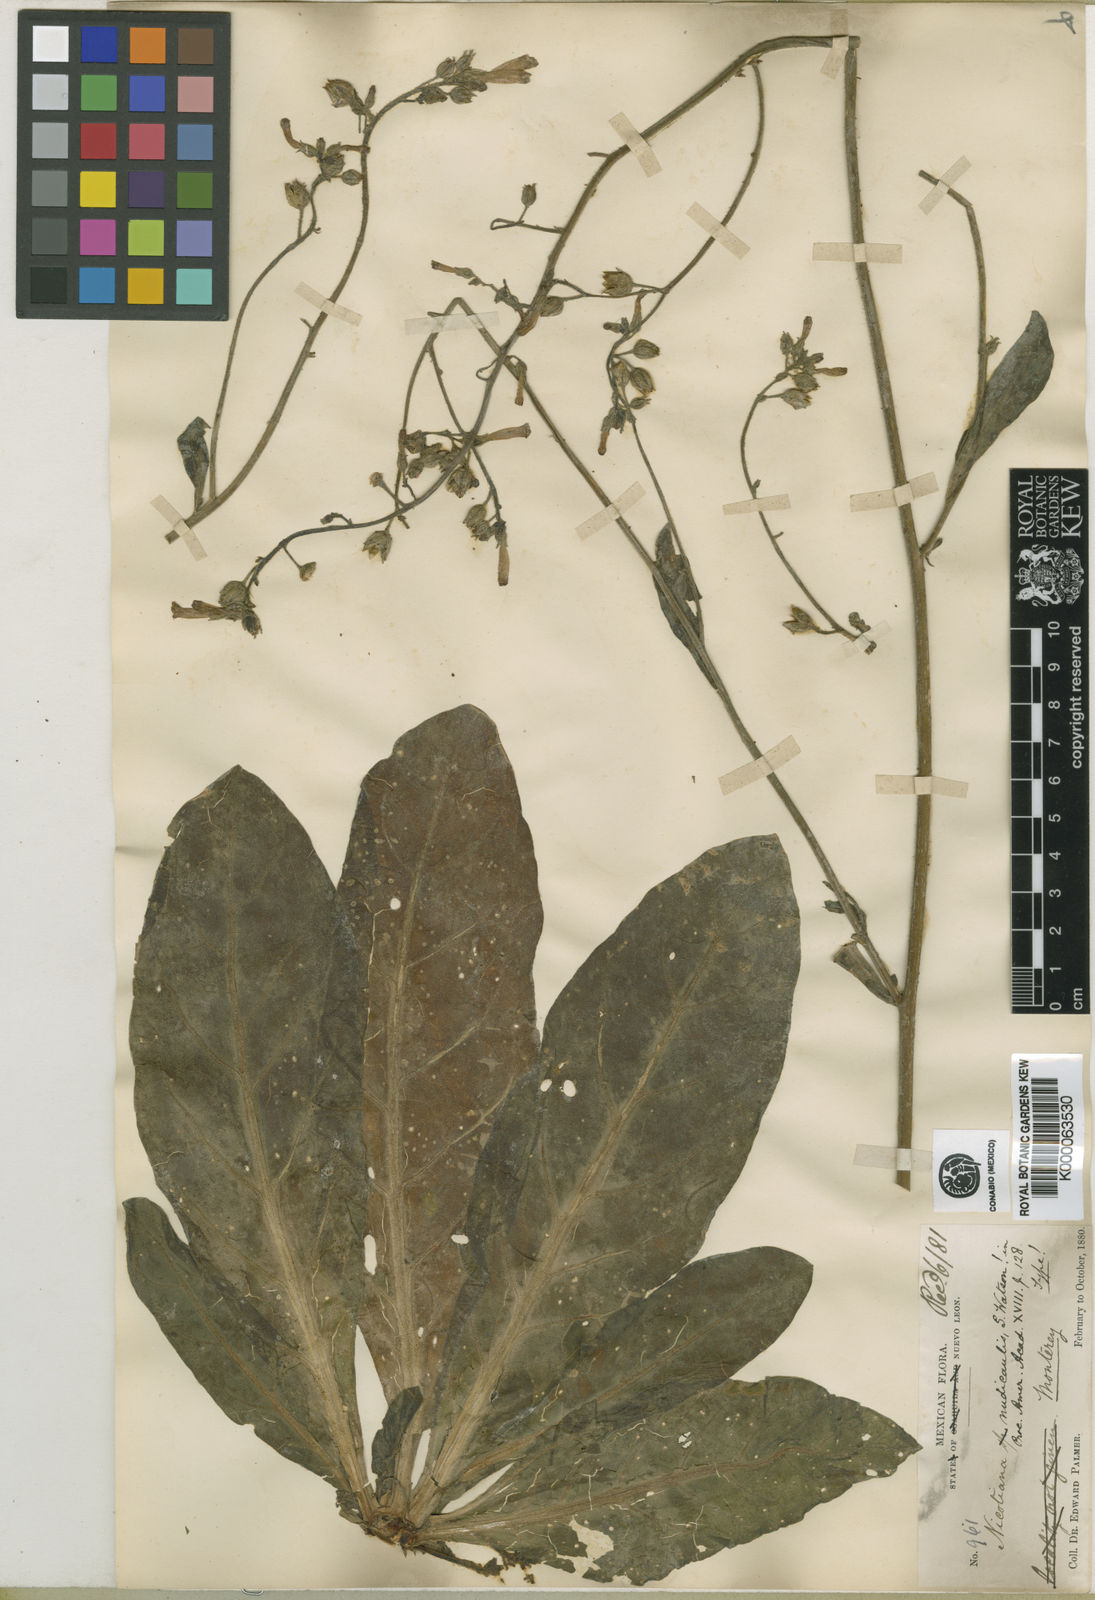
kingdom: Plantae
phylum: Tracheophyta
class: Magnoliopsida
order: Solanales
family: Solanaceae
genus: Nicotiana
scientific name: Nicotiana nudicaulis
